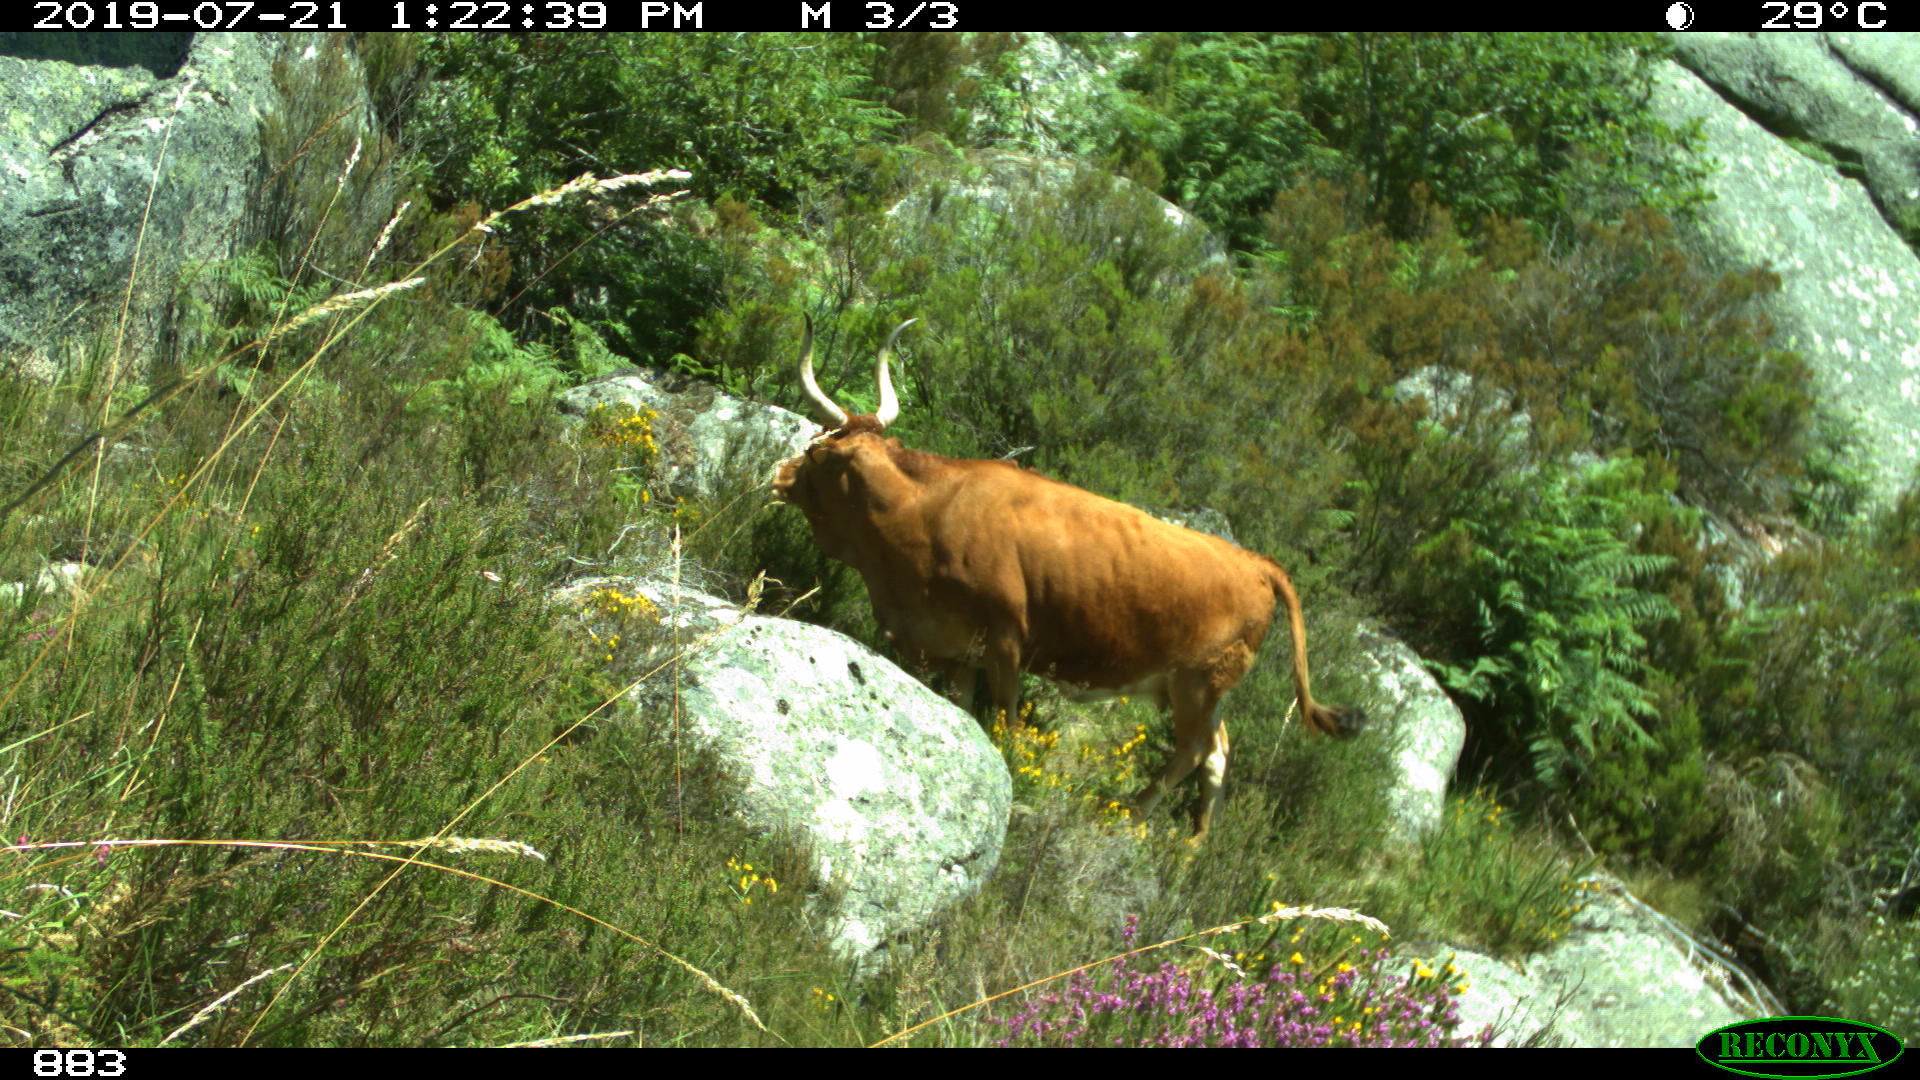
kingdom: Animalia
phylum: Chordata
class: Mammalia
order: Artiodactyla
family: Bovidae
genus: Bos
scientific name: Bos taurus
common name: Domesticated cattle
